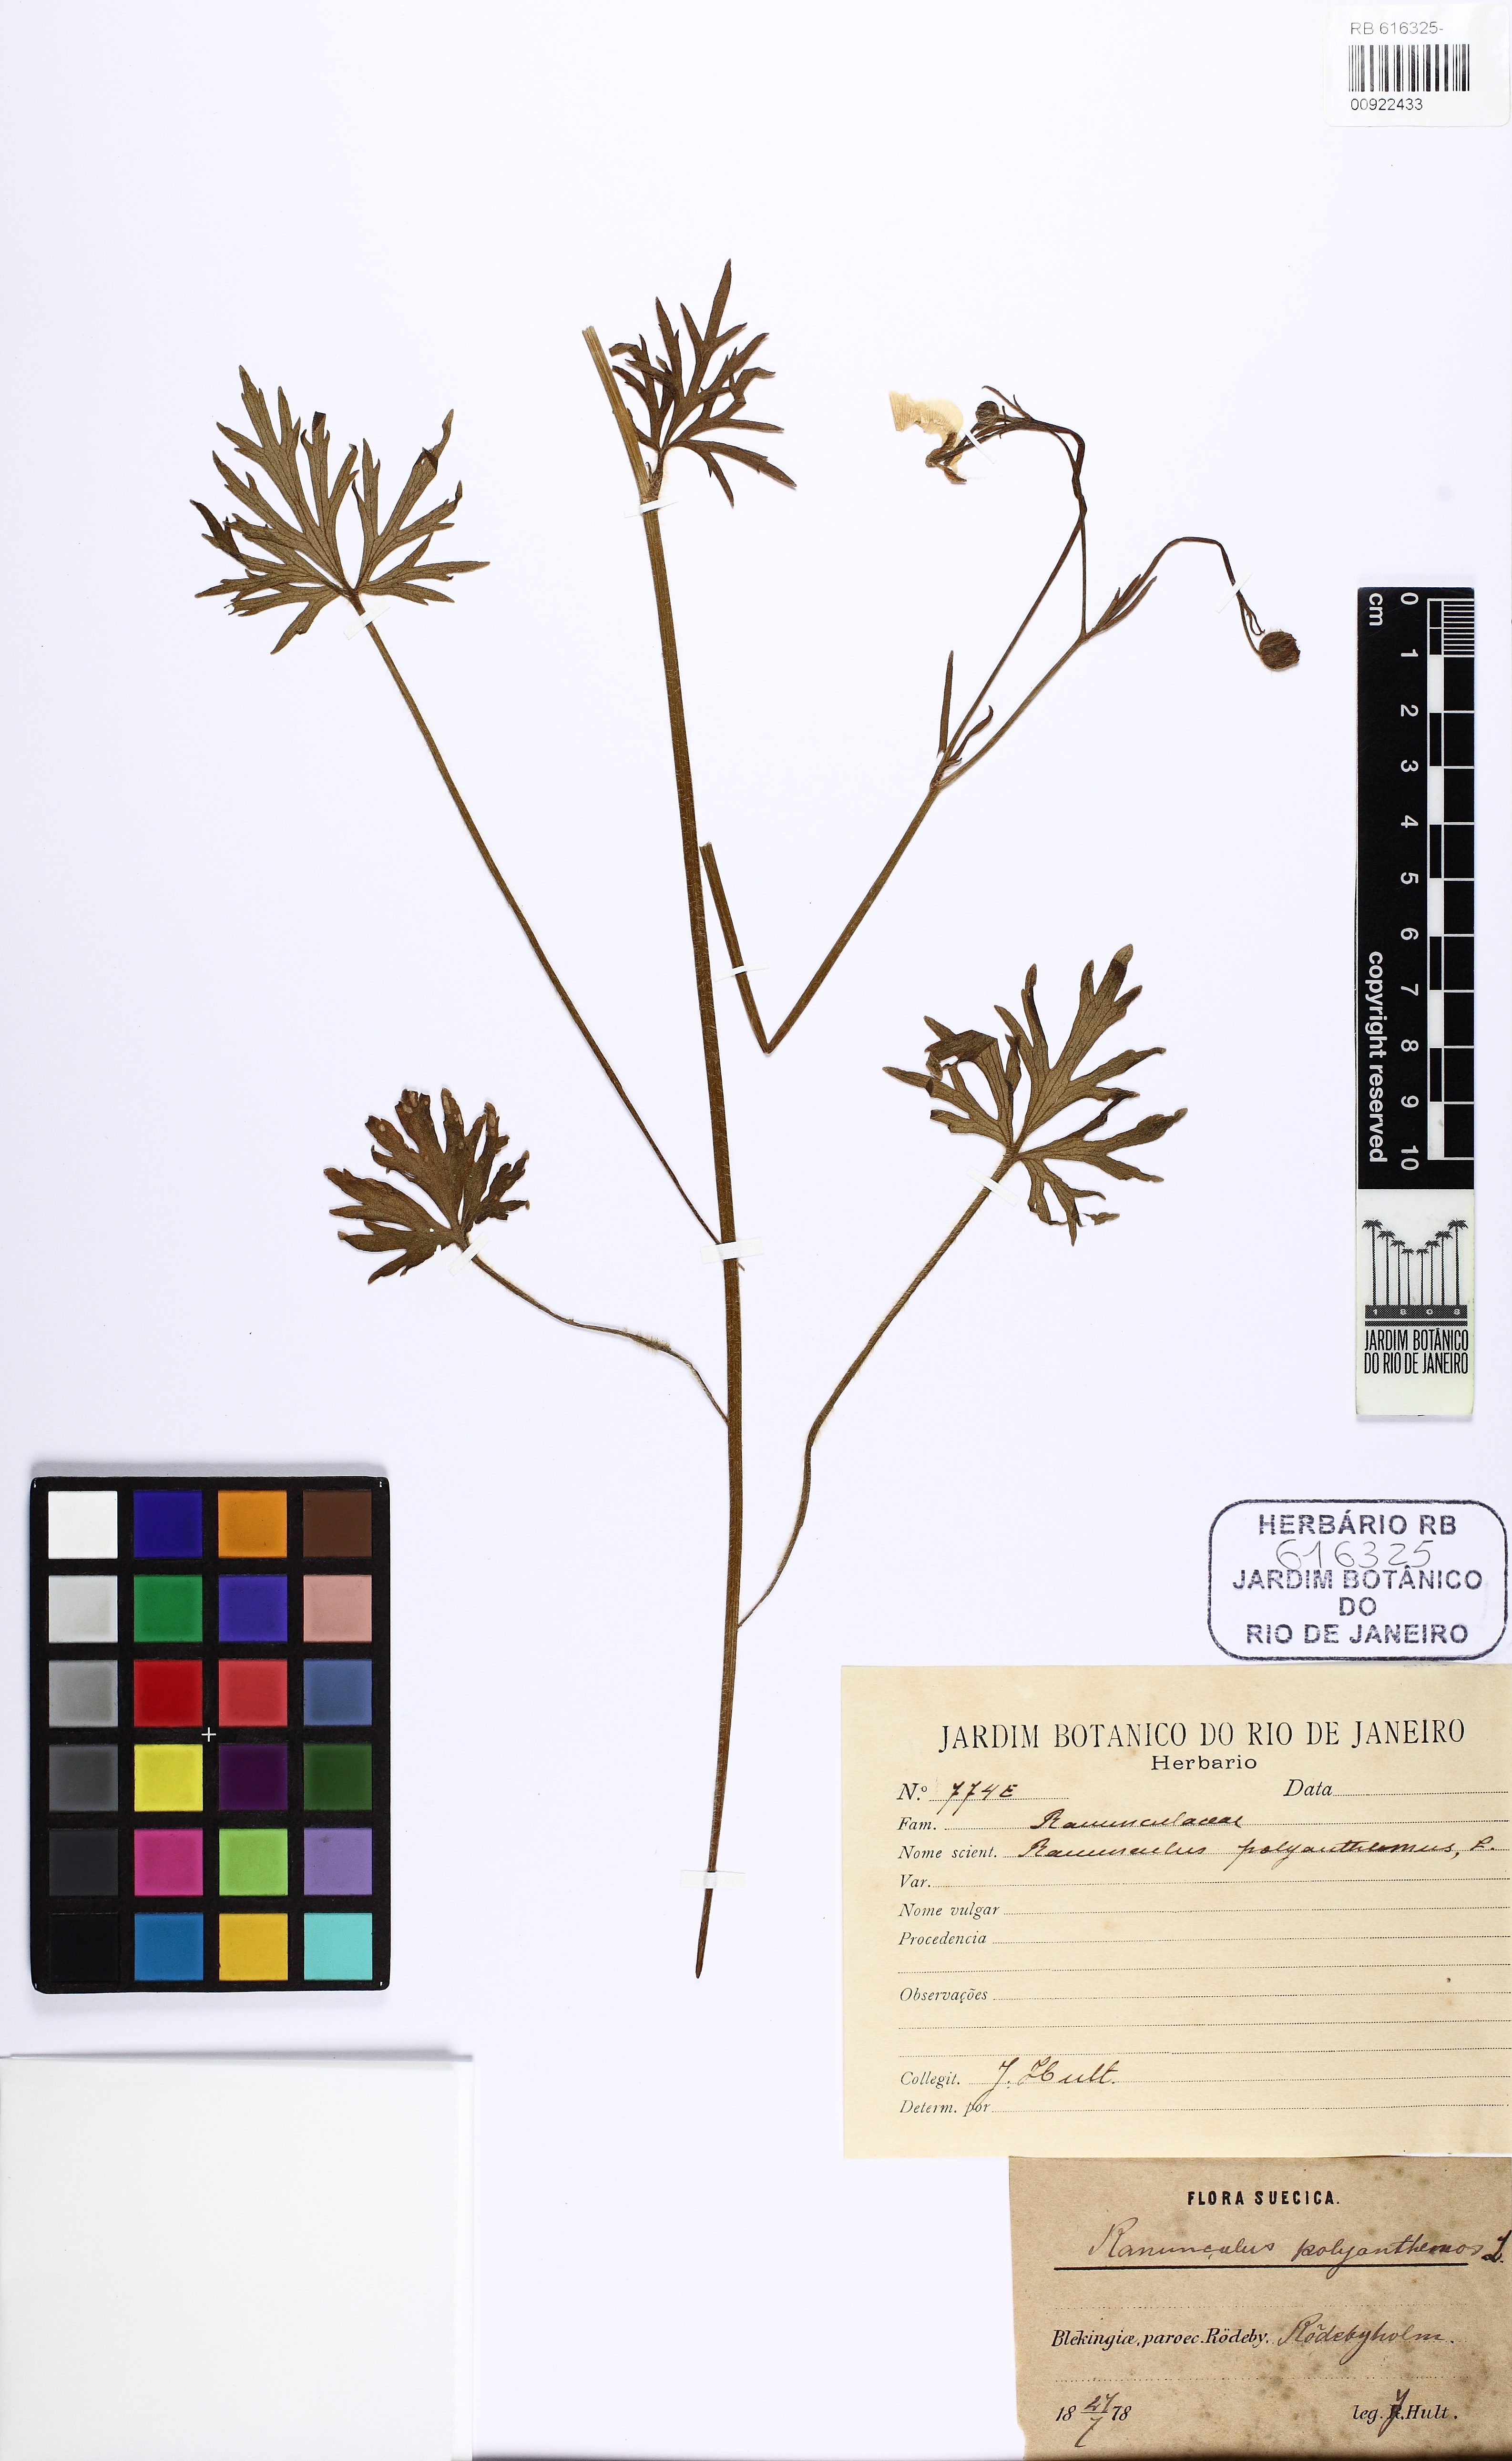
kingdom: Plantae
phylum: Tracheophyta
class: Magnoliopsida
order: Ranunculales
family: Ranunculaceae
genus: Ranunculus
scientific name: Ranunculus polyanthemos
